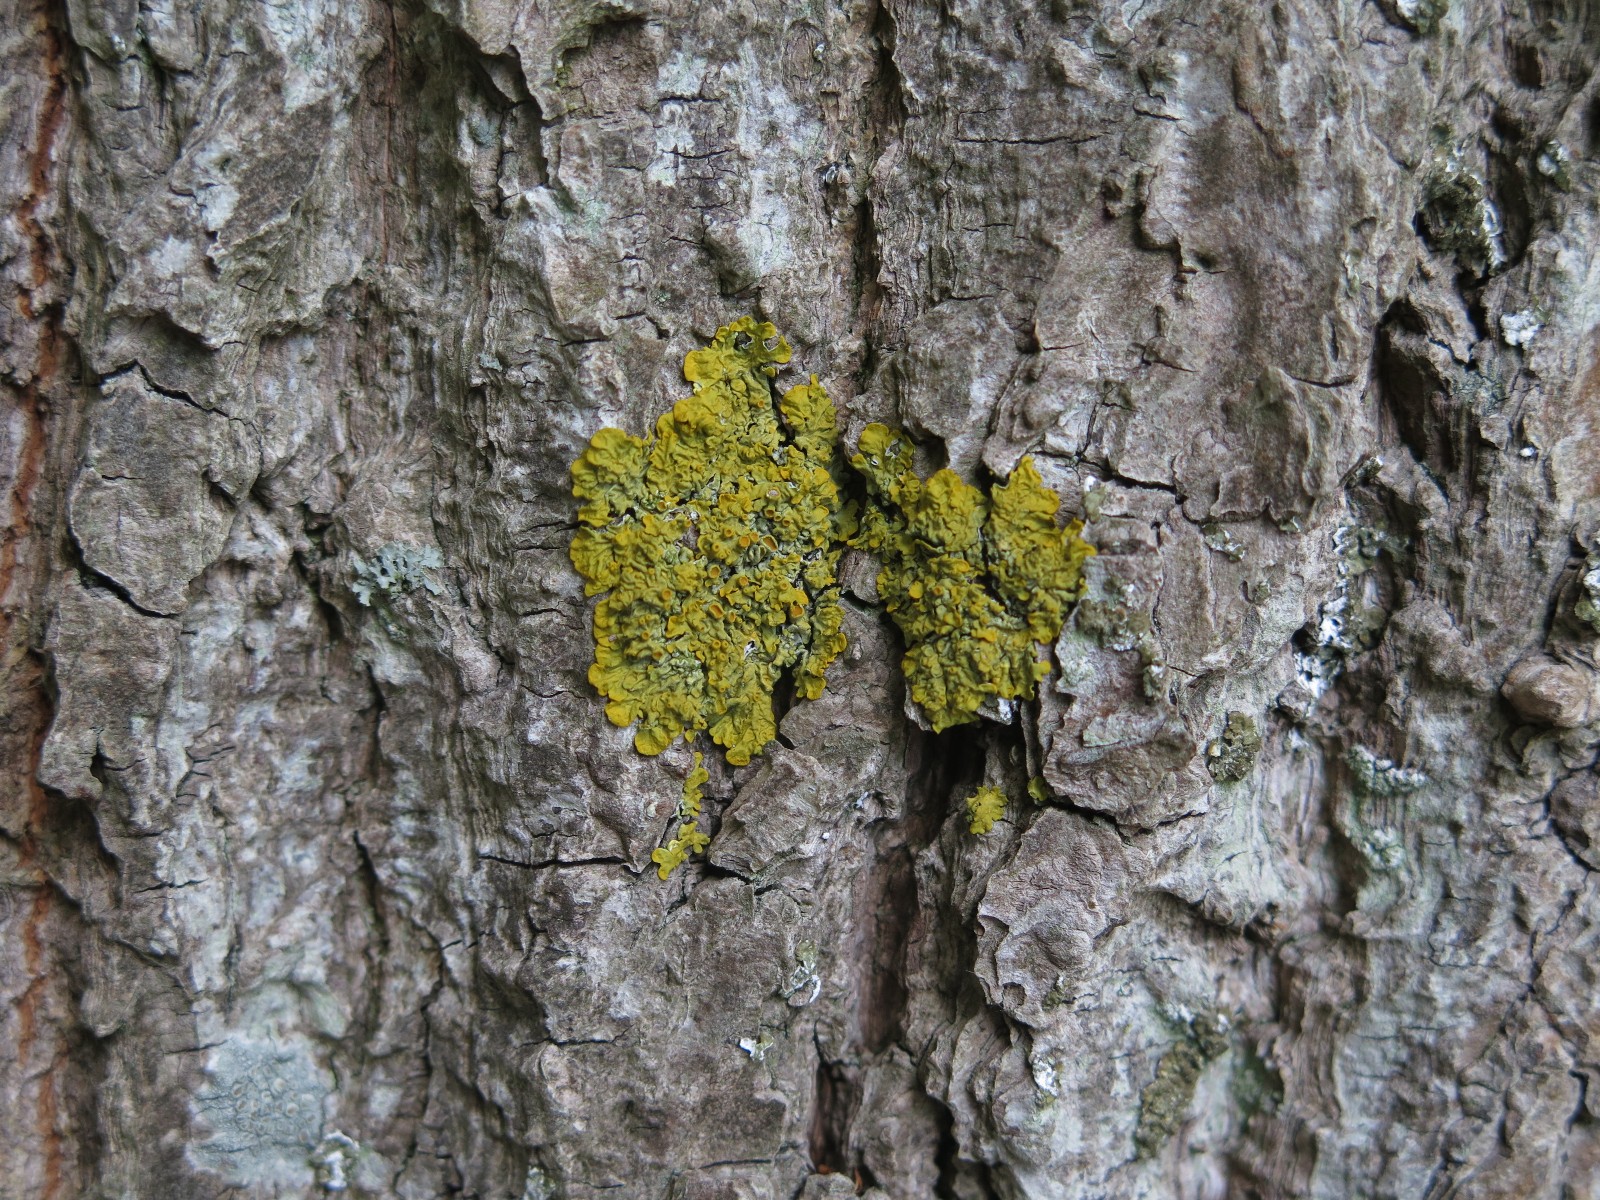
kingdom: Fungi
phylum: Ascomycota
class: Lecanoromycetes
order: Teloschistales
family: Teloschistaceae
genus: Xanthoria
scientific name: Xanthoria parietina
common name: almindelig væggelav
